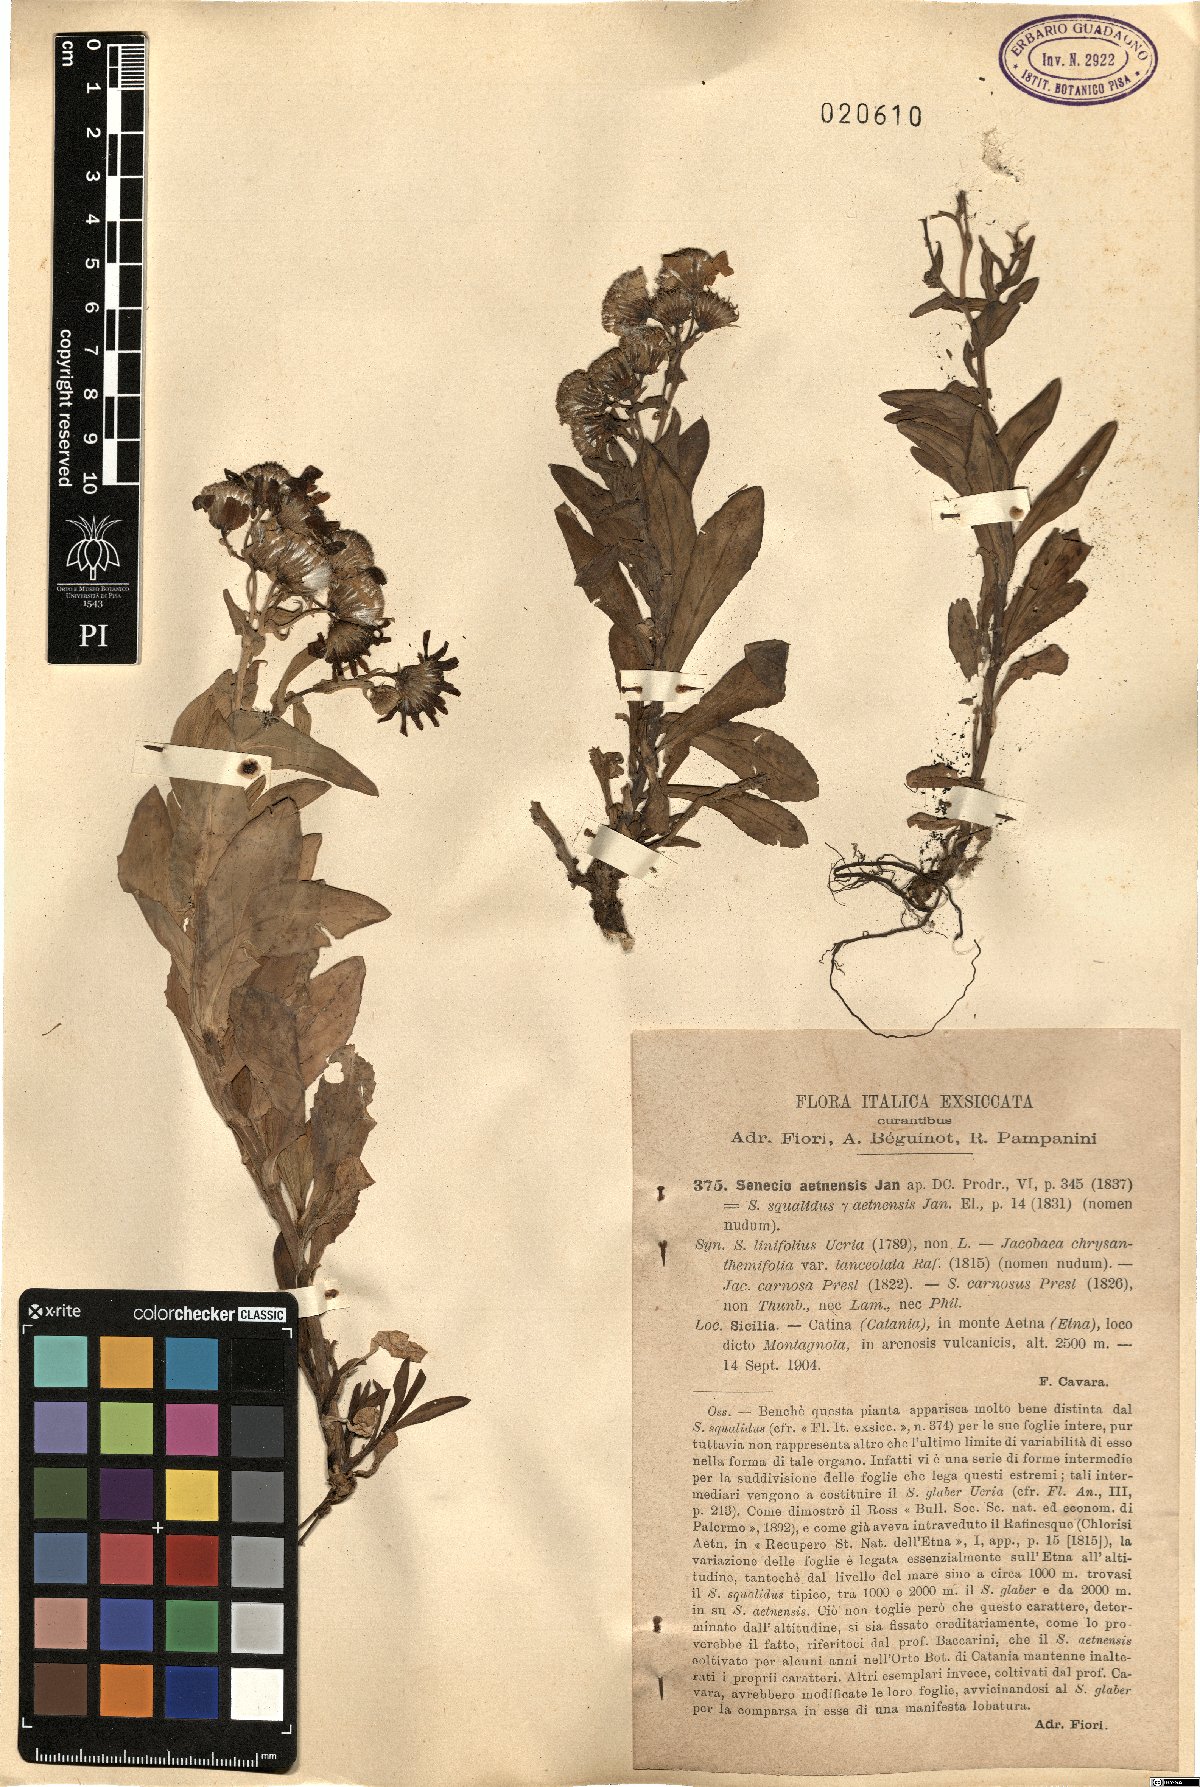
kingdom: Plantae
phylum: Tracheophyta
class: Magnoliopsida
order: Asterales
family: Asteraceae
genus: Senecio
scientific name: Senecio squalidus
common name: Oxford ragwort
